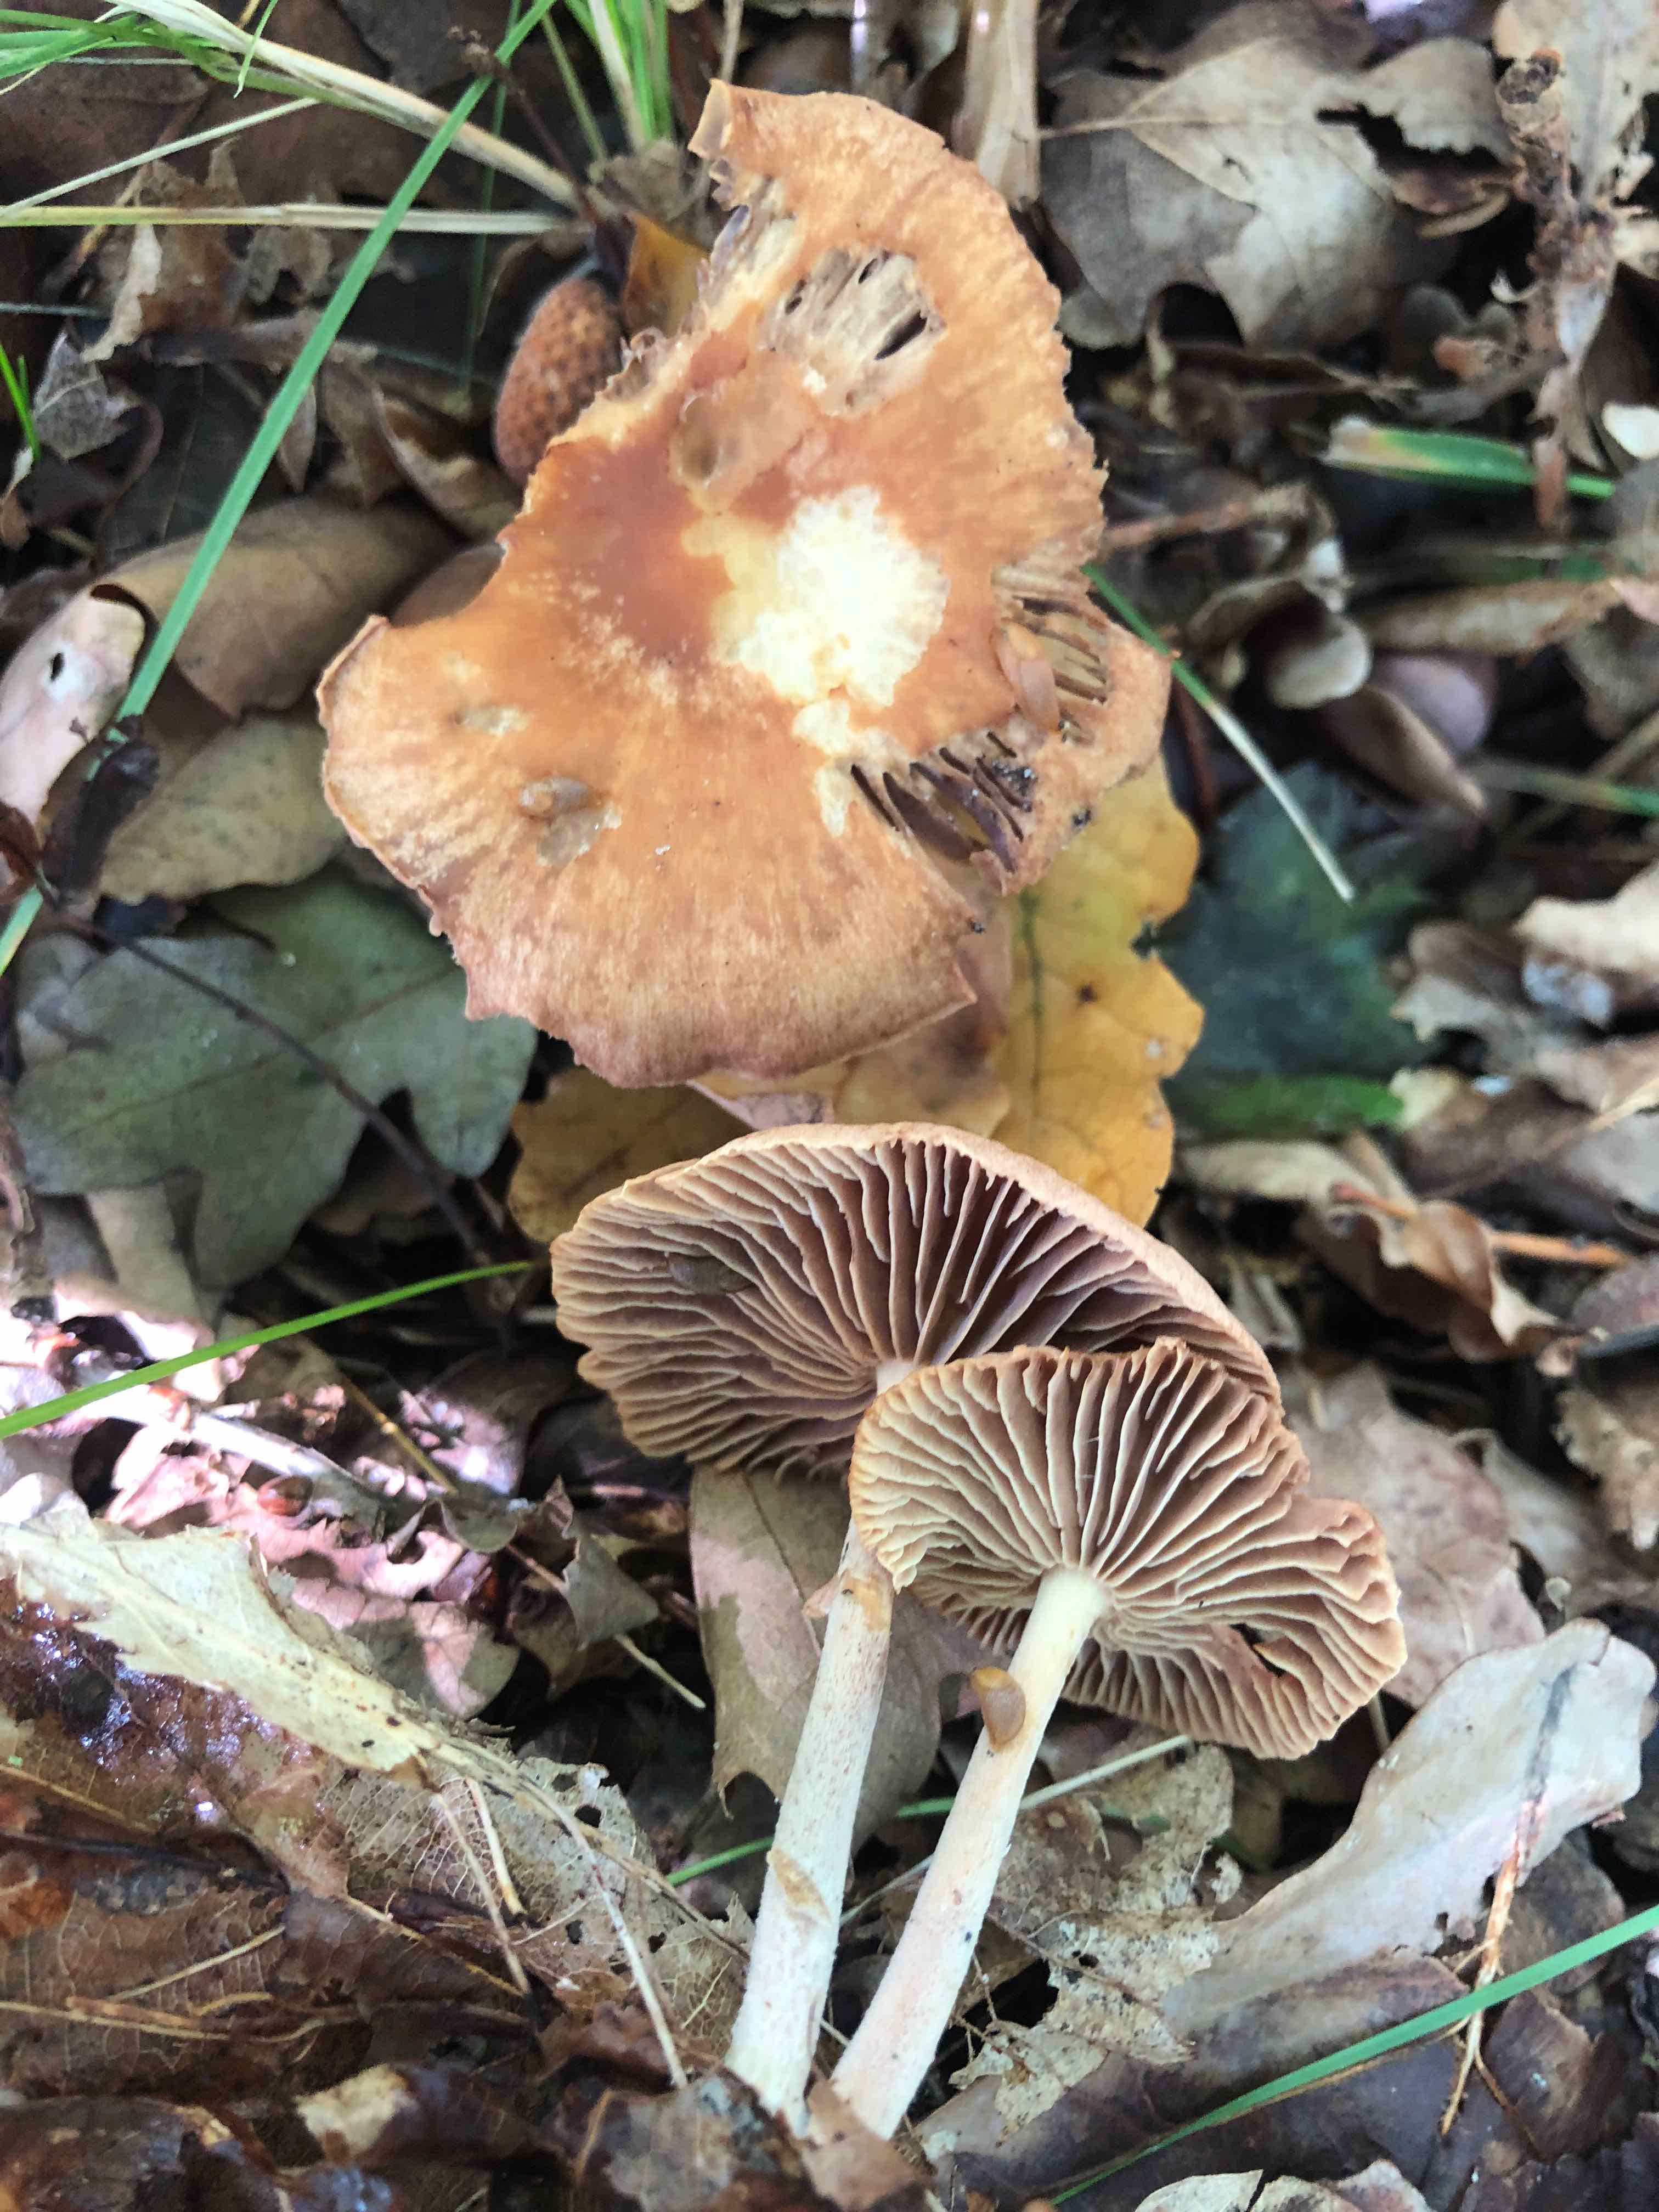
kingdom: Fungi
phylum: Basidiomycota
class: Agaricomycetes
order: Agaricales
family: Omphalotaceae
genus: Collybiopsis
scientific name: Collybiopsis peronata
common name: bestøvlet fladhat
